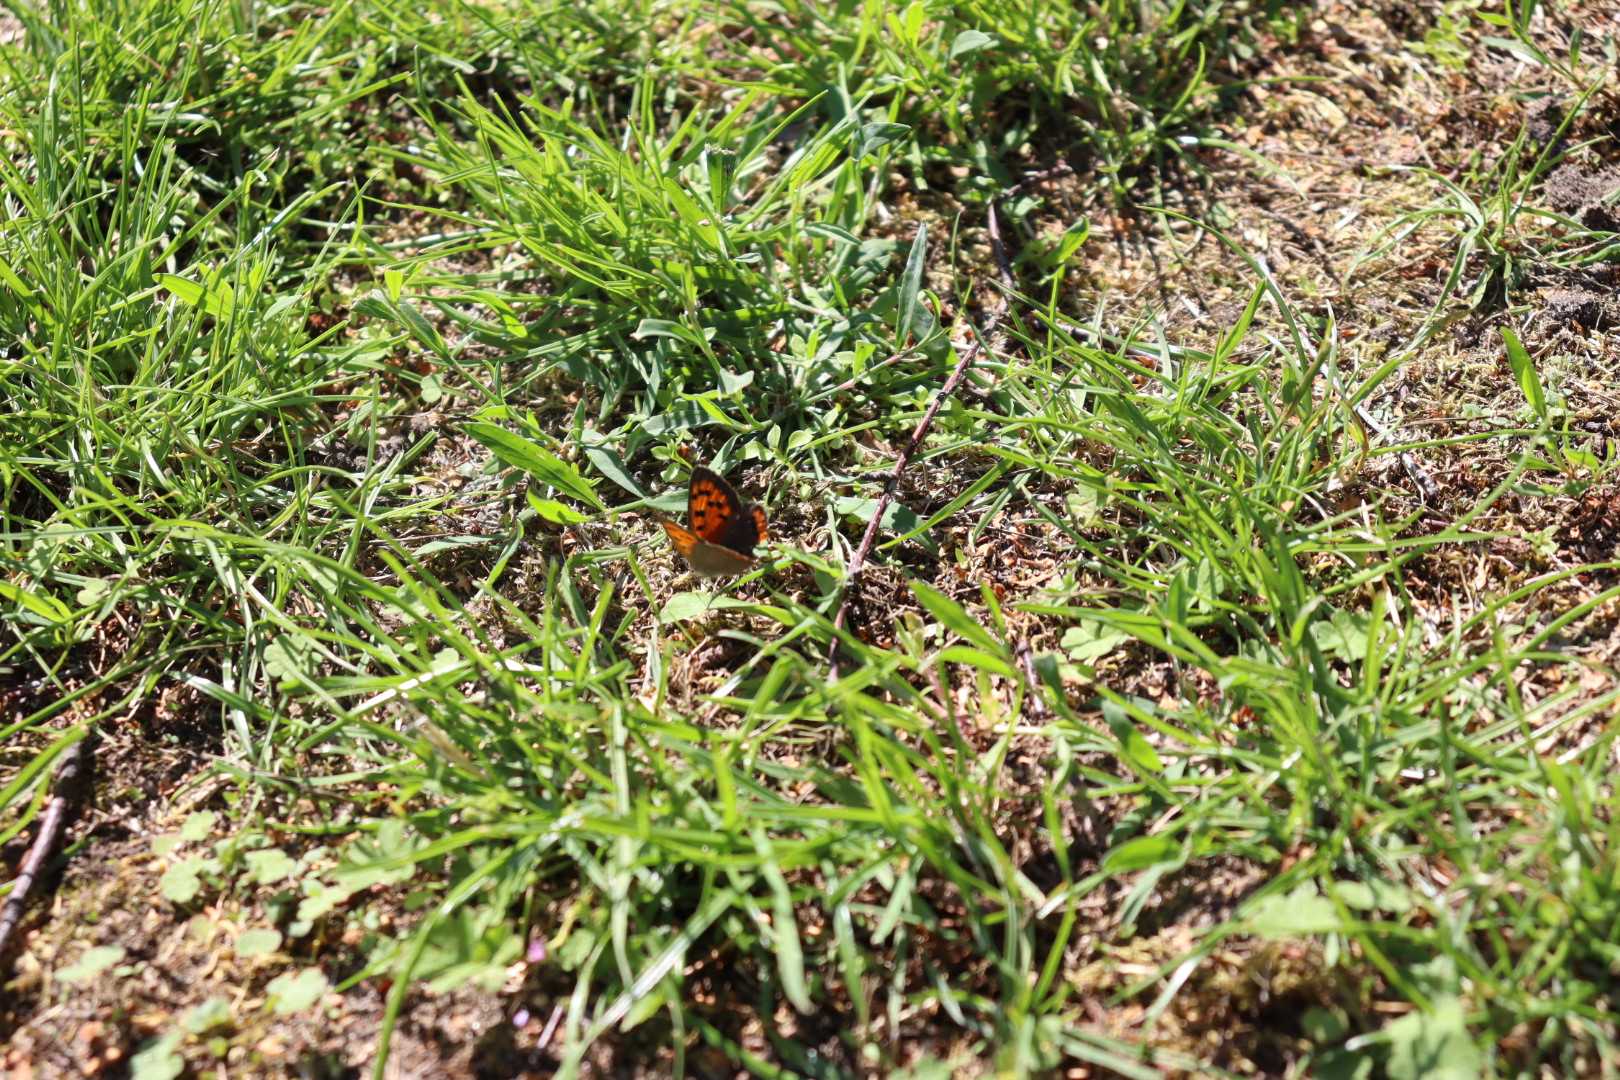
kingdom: Animalia
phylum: Arthropoda
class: Insecta
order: Lepidoptera
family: Lycaenidae
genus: Lycaena
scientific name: Lycaena phlaeas
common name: Lille ildfugl
